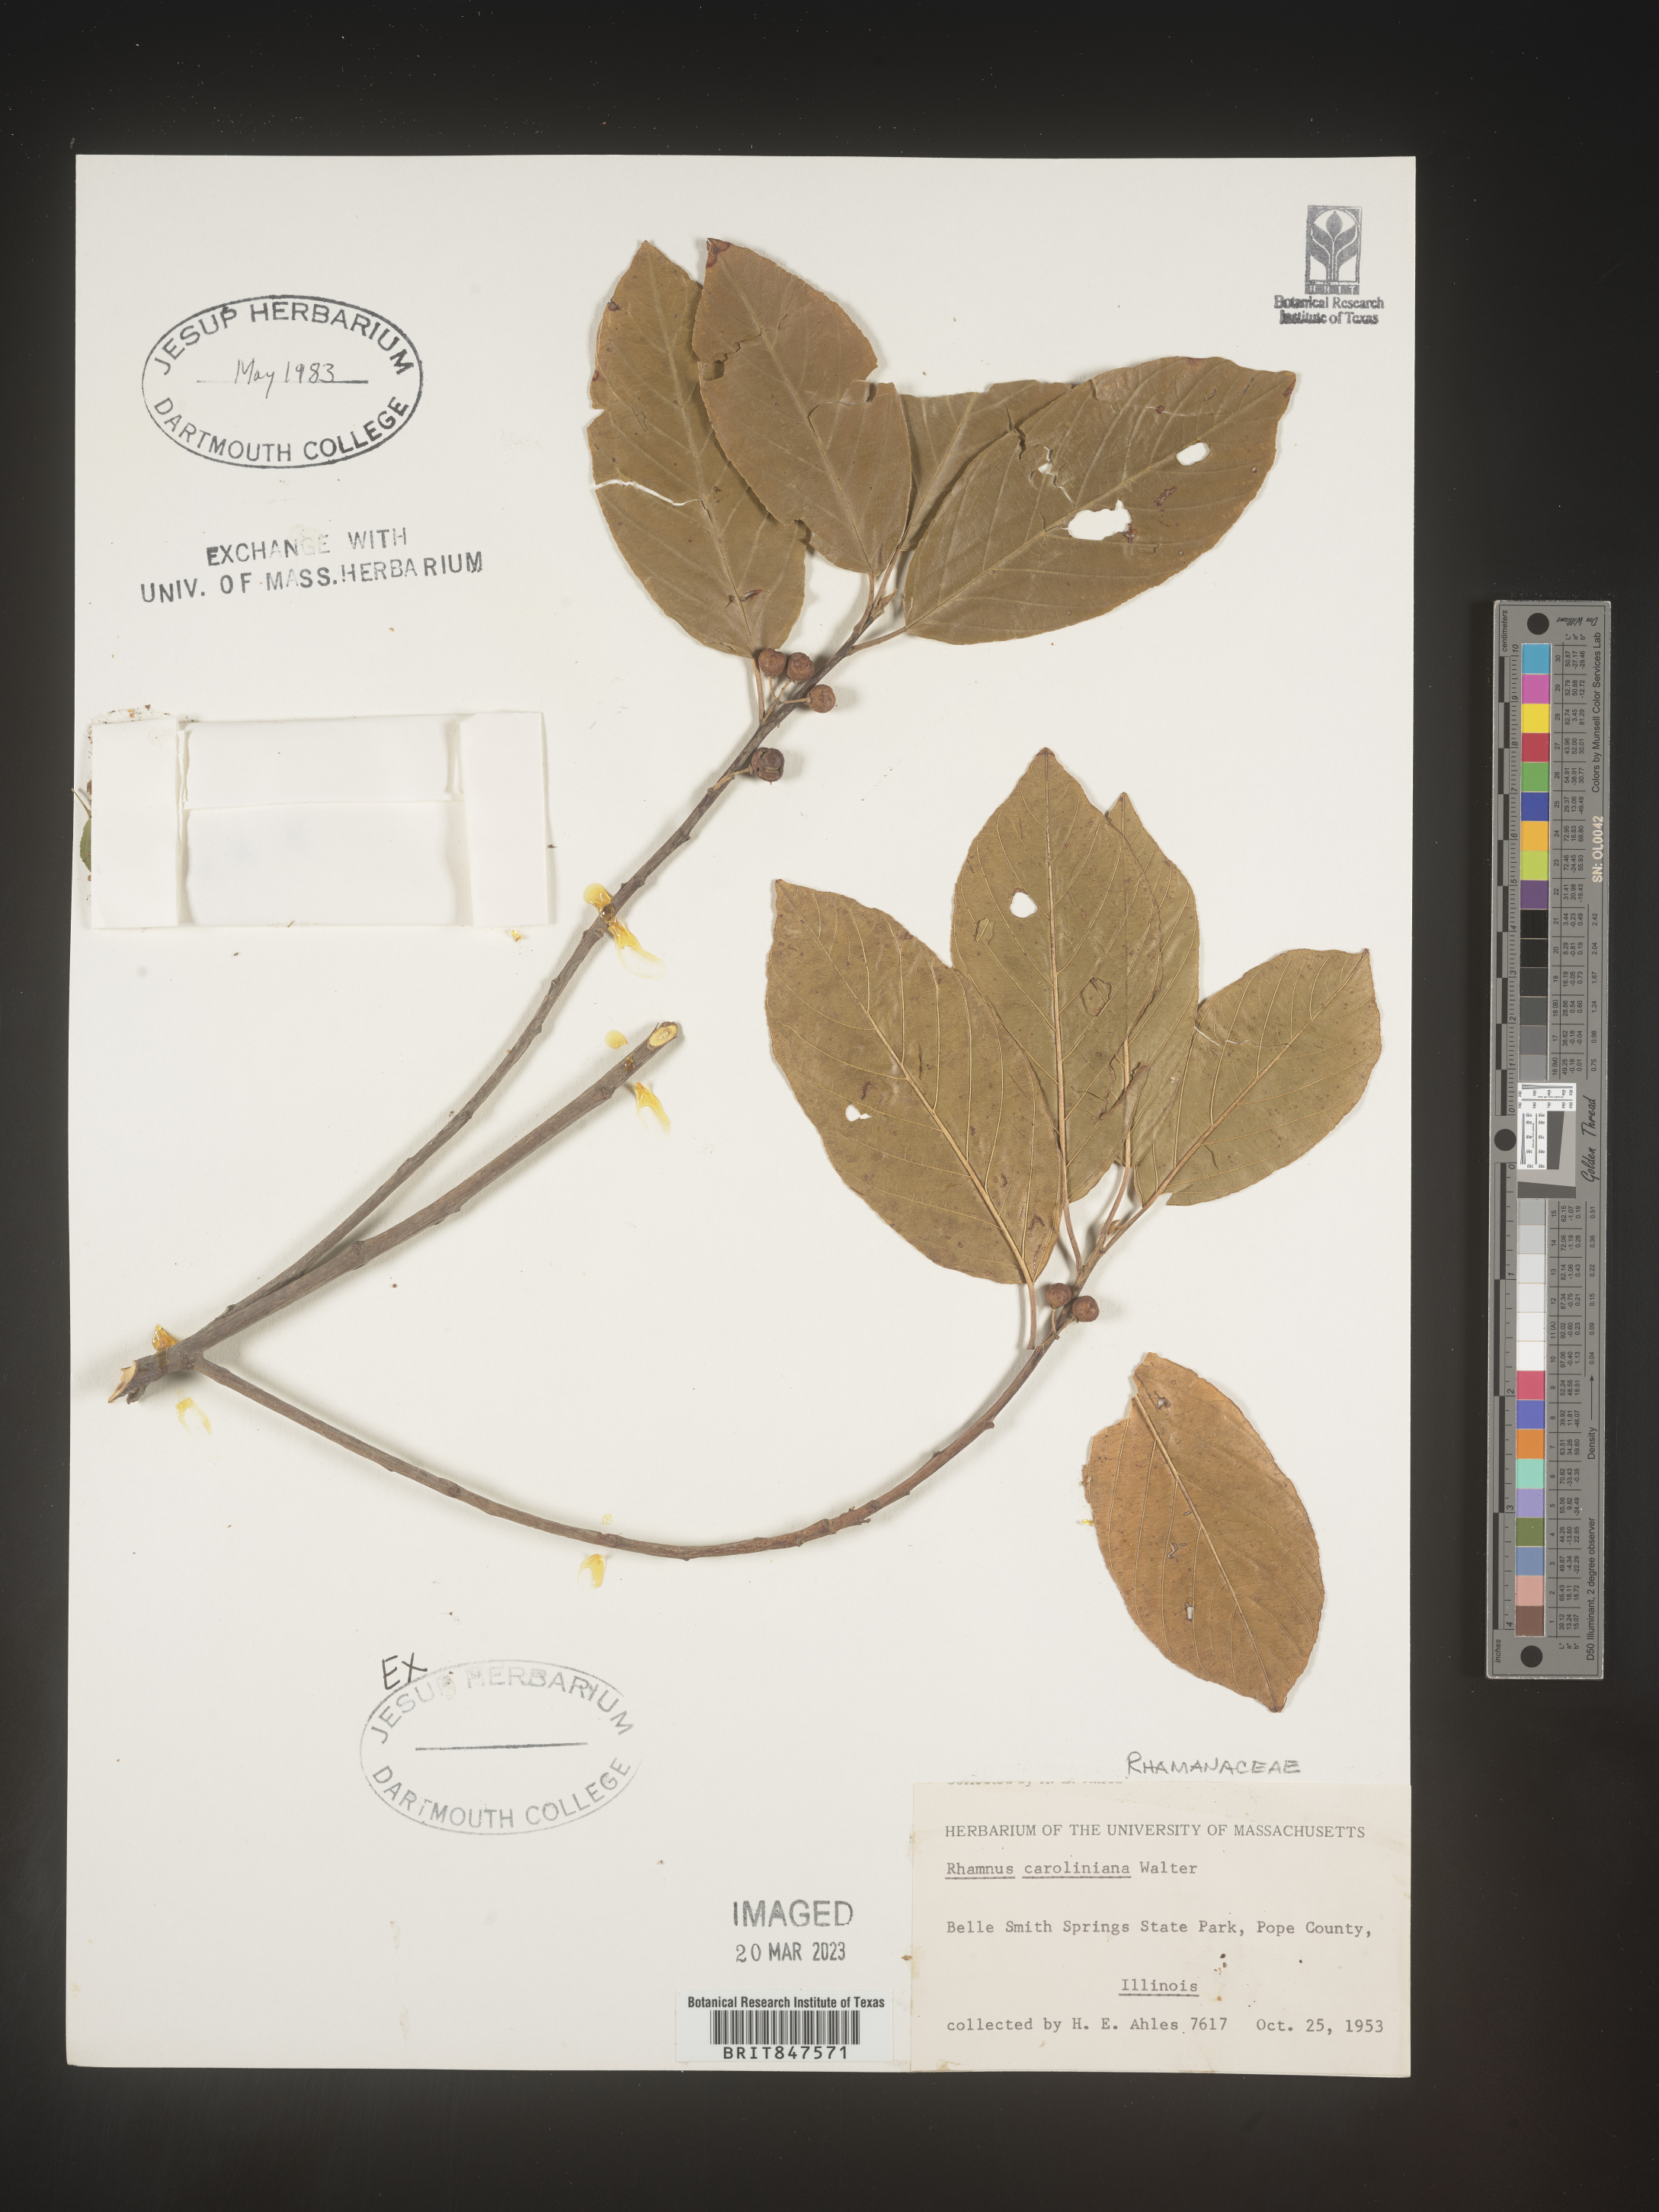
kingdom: Plantae
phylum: Tracheophyta
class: Magnoliopsida
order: Rosales
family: Rhamnaceae
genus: Frangula
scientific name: Frangula caroliniana
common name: Carolina buckthorn
